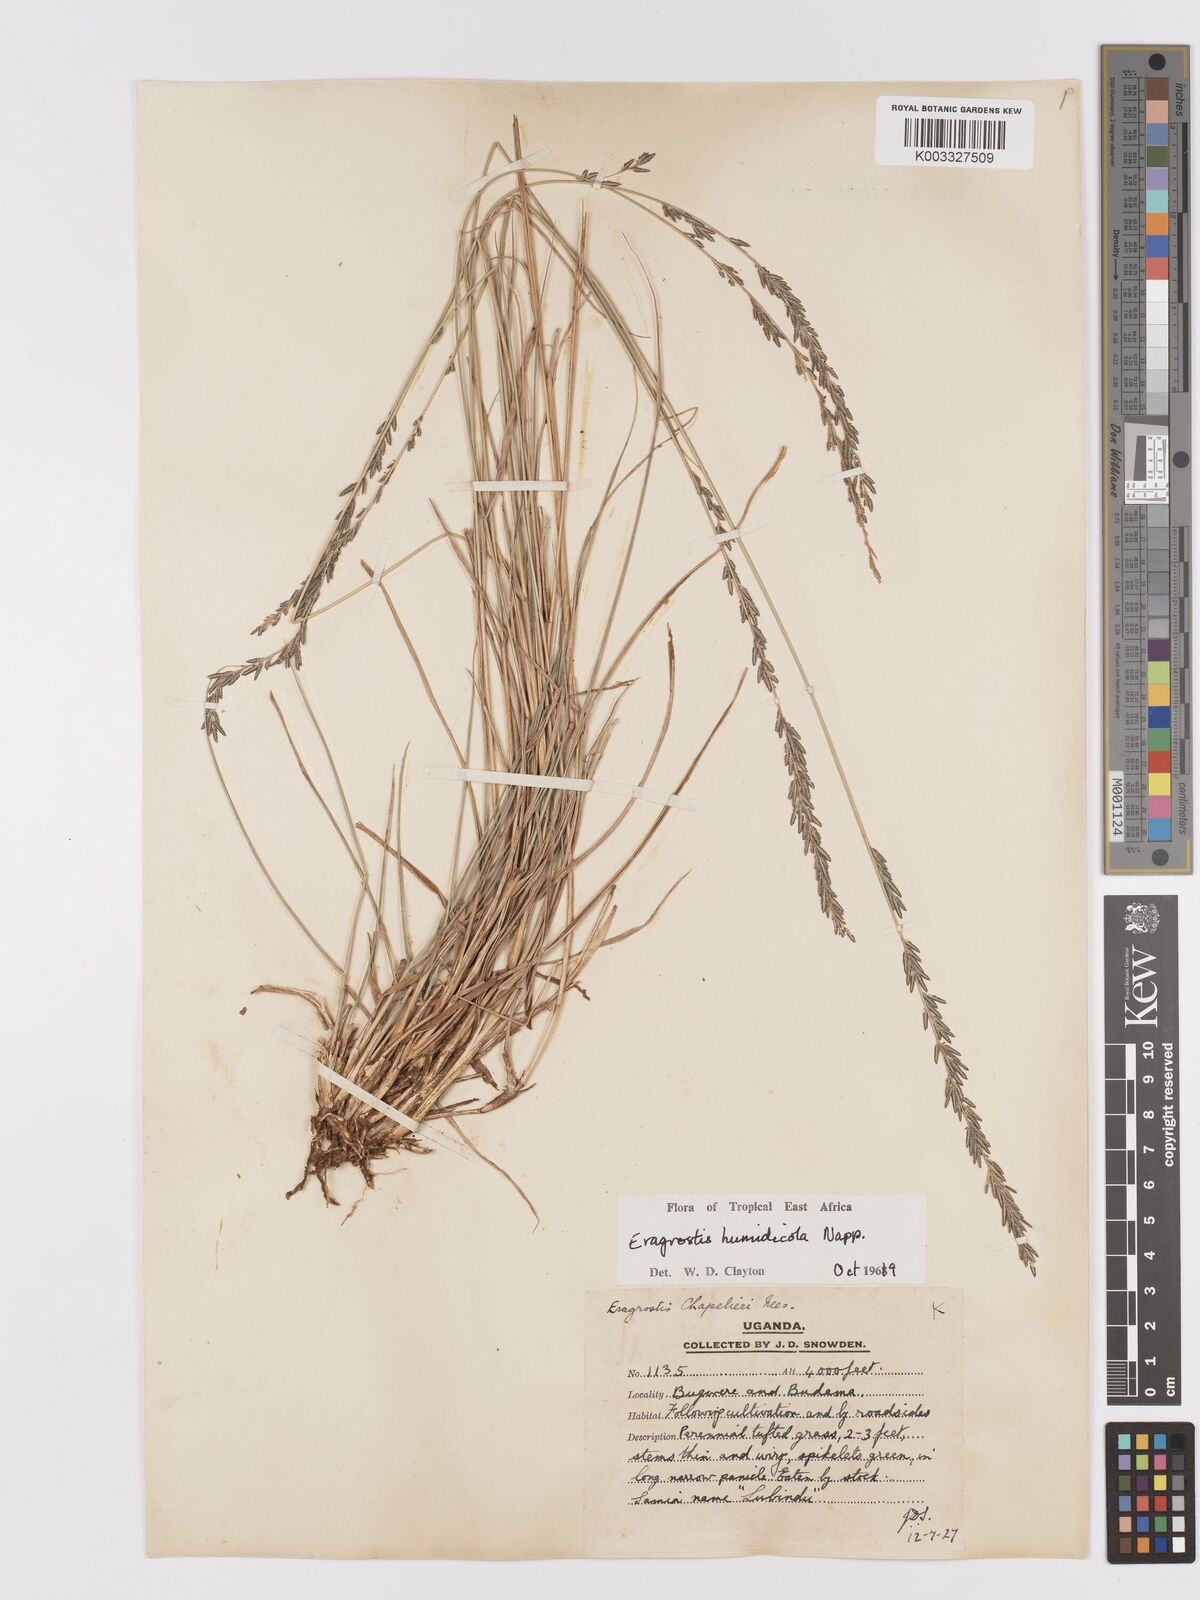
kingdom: Plantae
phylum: Tracheophyta
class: Liliopsida
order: Poales
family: Poaceae
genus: Eragrostis
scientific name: Eragrostis humidicola
